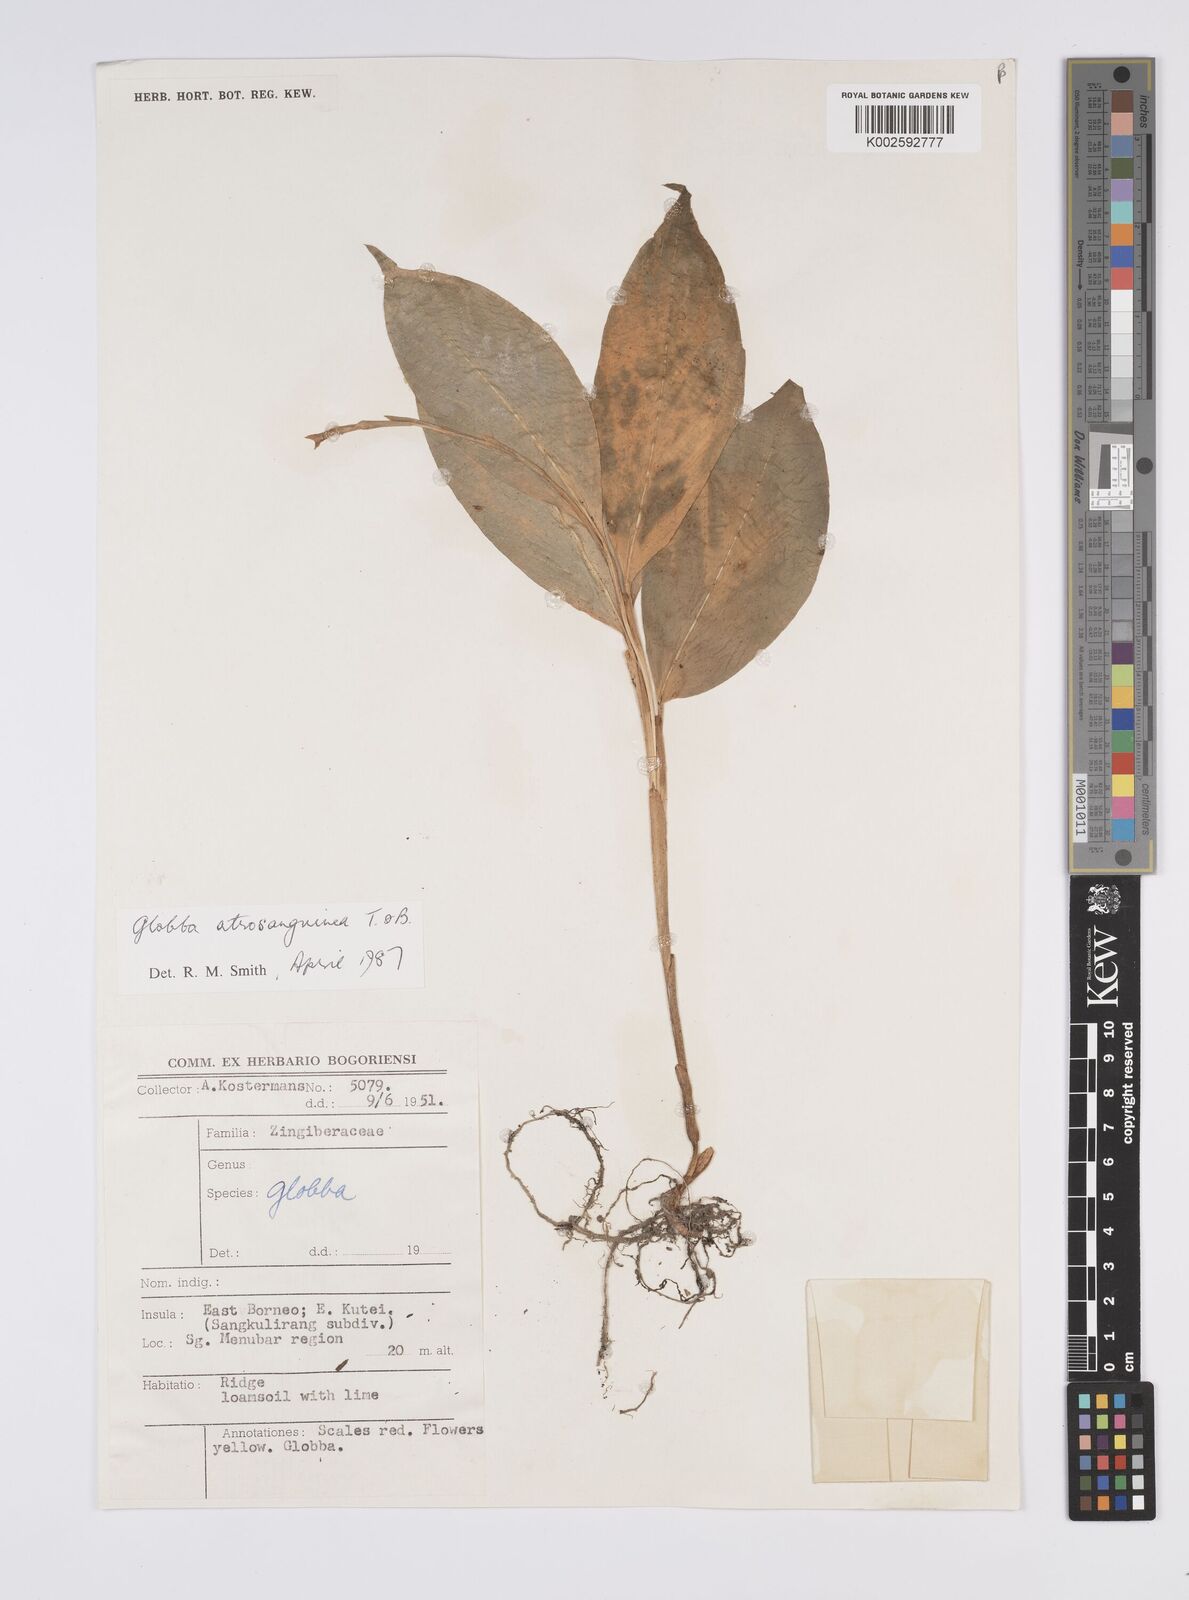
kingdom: Plantae
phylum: Tracheophyta
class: Liliopsida
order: Zingiberales
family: Zingiberaceae
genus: Globba
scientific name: Globba atrosanguinea
